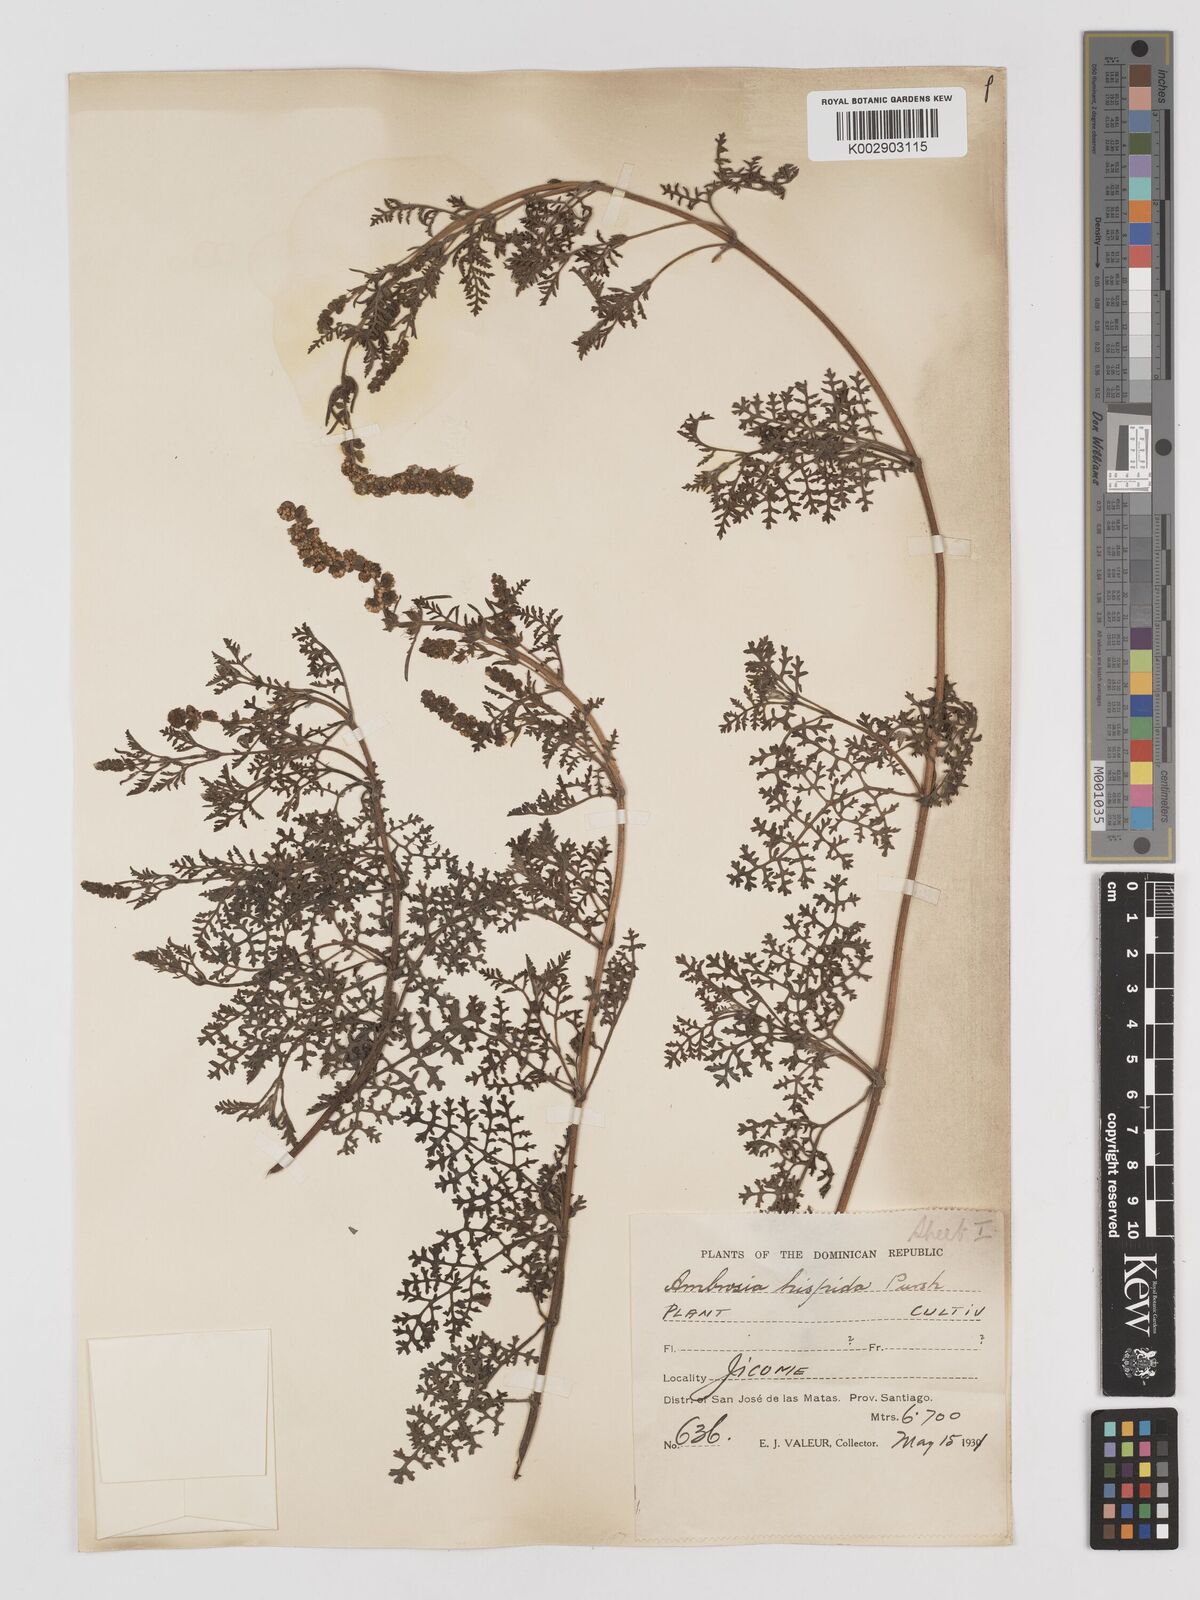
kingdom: Plantae
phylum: Tracheophyta
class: Magnoliopsida
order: Asterales
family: Asteraceae
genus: Ambrosia
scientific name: Ambrosia cumanensis
